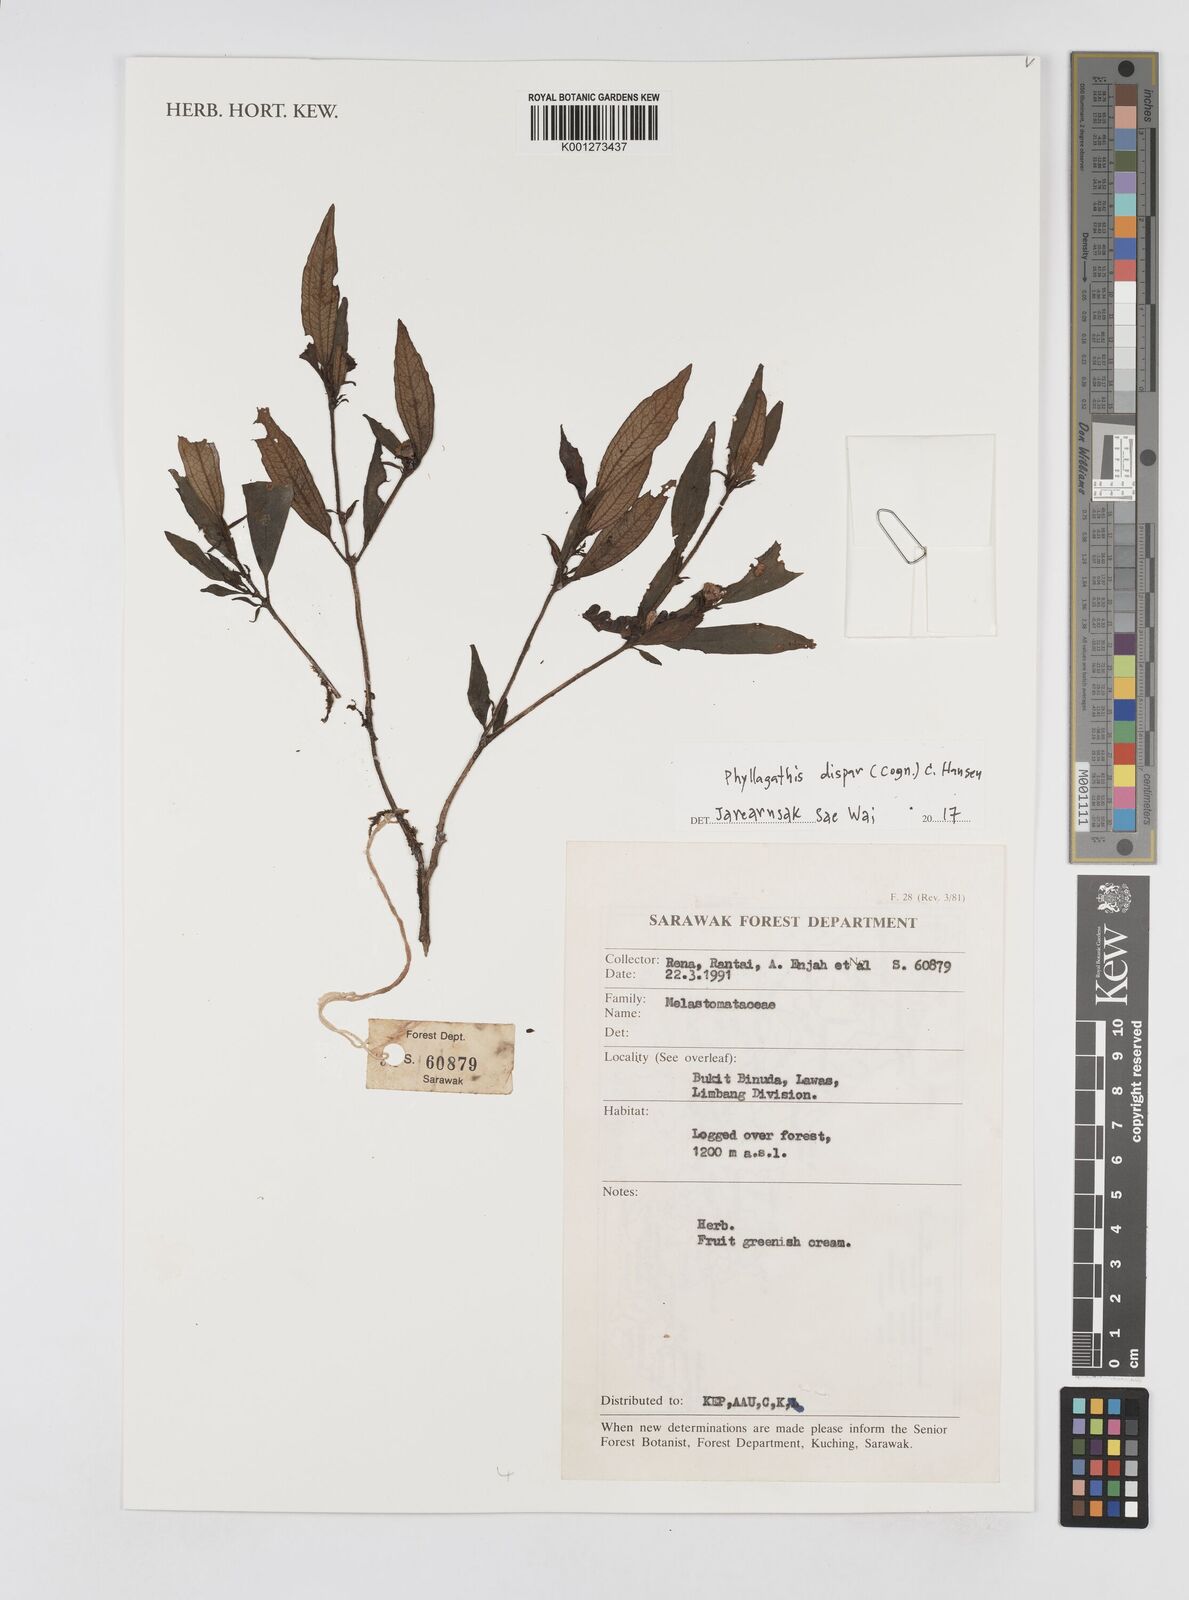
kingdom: Plantae
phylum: Tracheophyta
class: Magnoliopsida
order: Myrtales
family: Melastomataceae
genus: Anerincleistus
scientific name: Anerincleistus dispar
